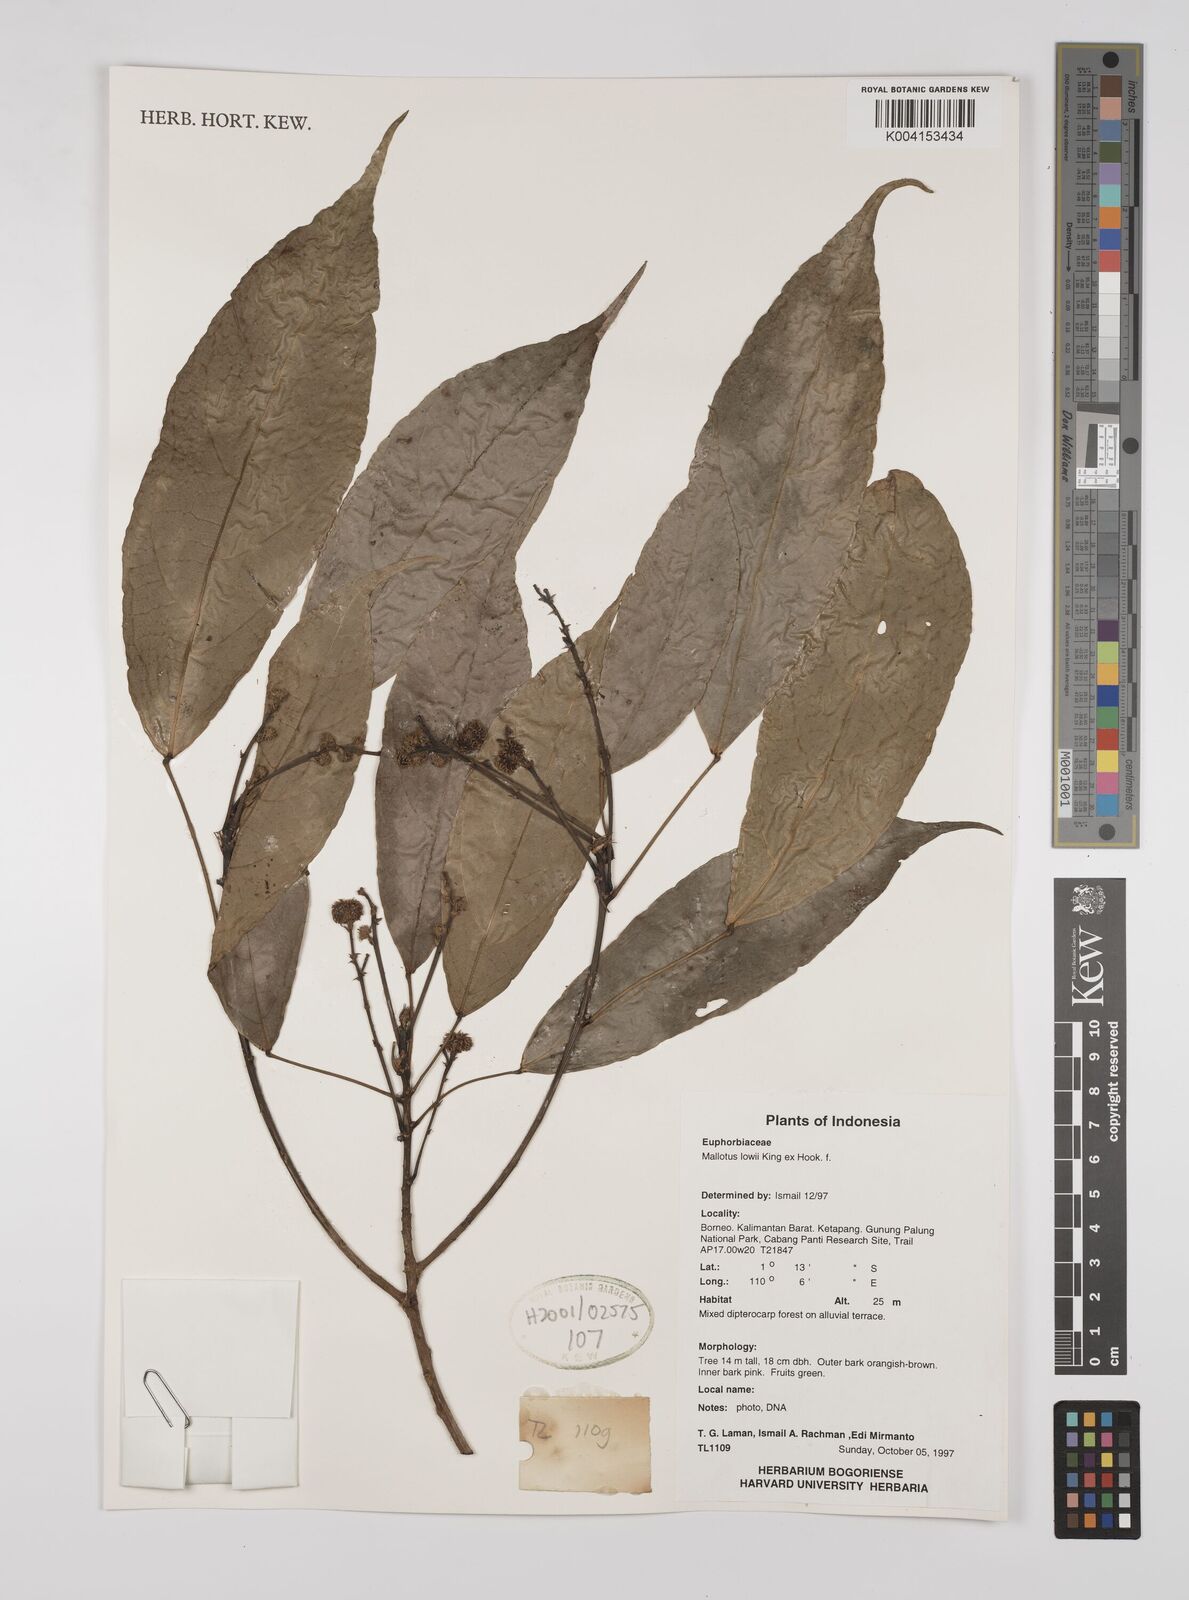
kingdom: Plantae
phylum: Tracheophyta
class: Magnoliopsida
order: Malpighiales
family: Euphorbiaceae
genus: Macaranga
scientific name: Macaranga lowii
